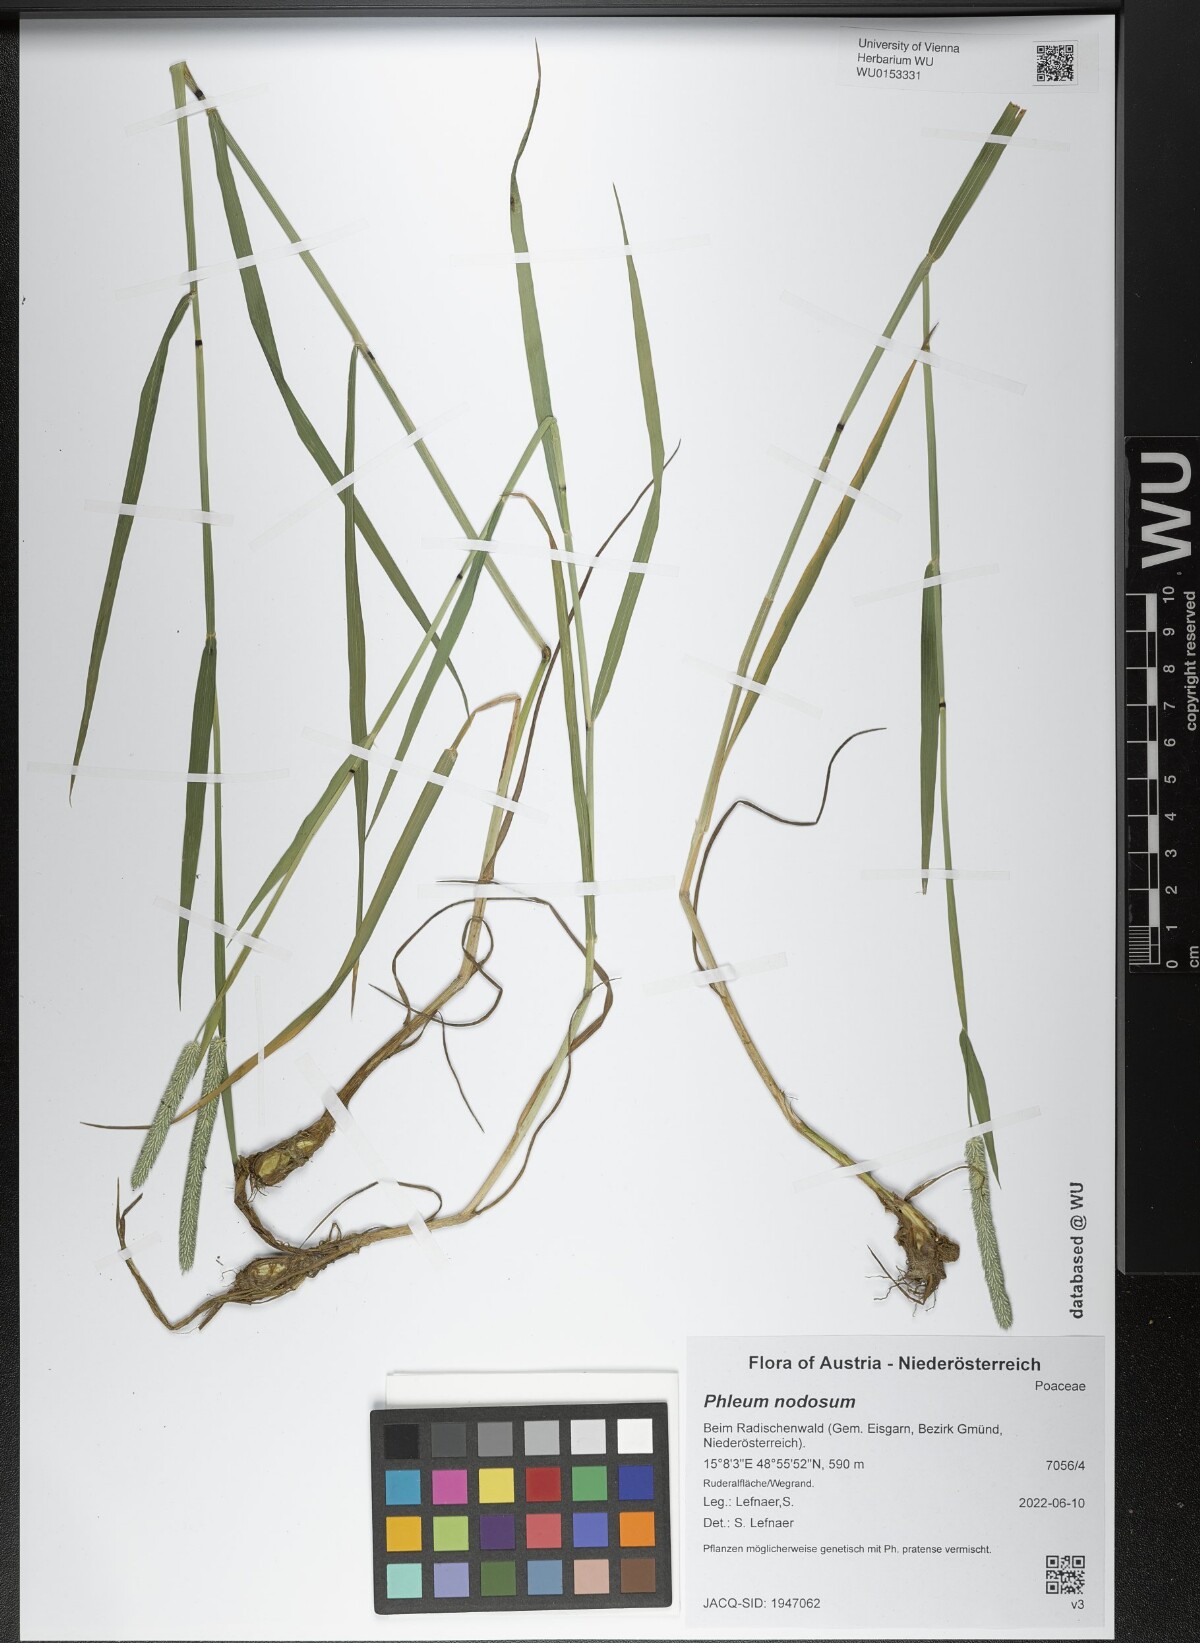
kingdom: Plantae
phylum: Tracheophyta
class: Liliopsida
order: Poales
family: Poaceae
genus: Phleum
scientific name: Phleum pratense
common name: Timothy grass
